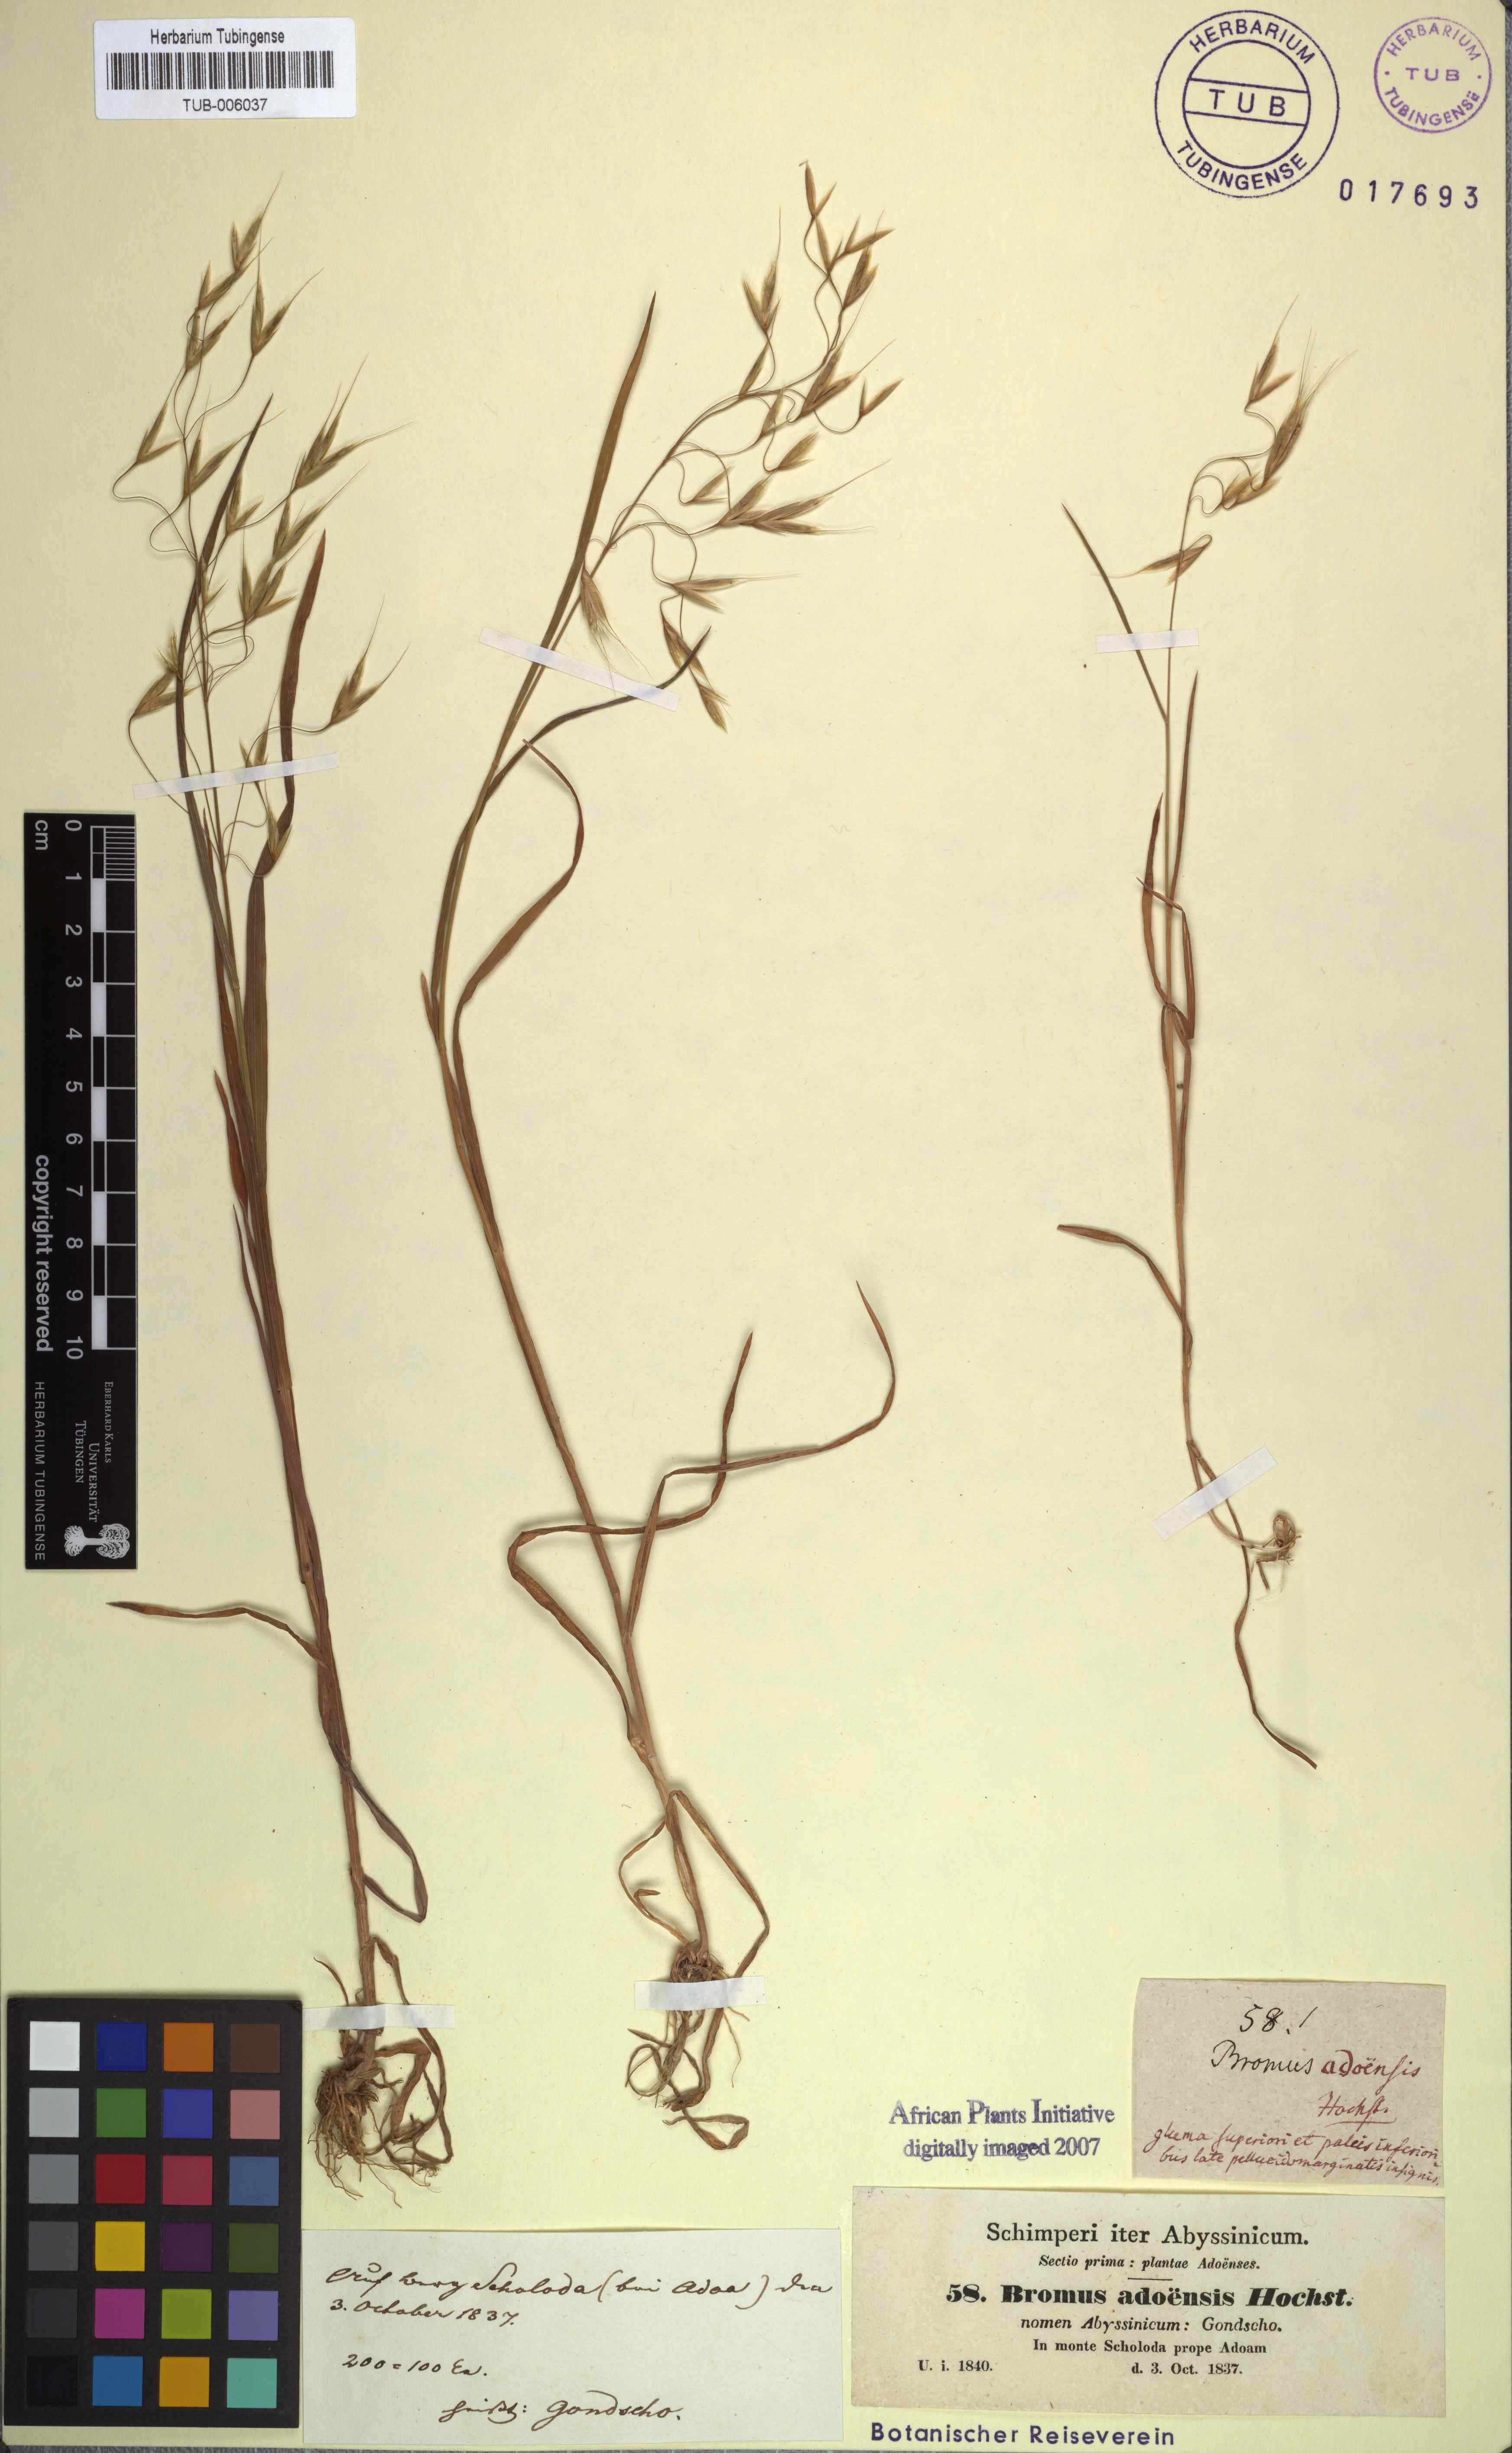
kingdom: Plantae
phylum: Tracheophyta
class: Liliopsida
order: Poales
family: Poaceae
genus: Bromus
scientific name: Bromus pectinatus
